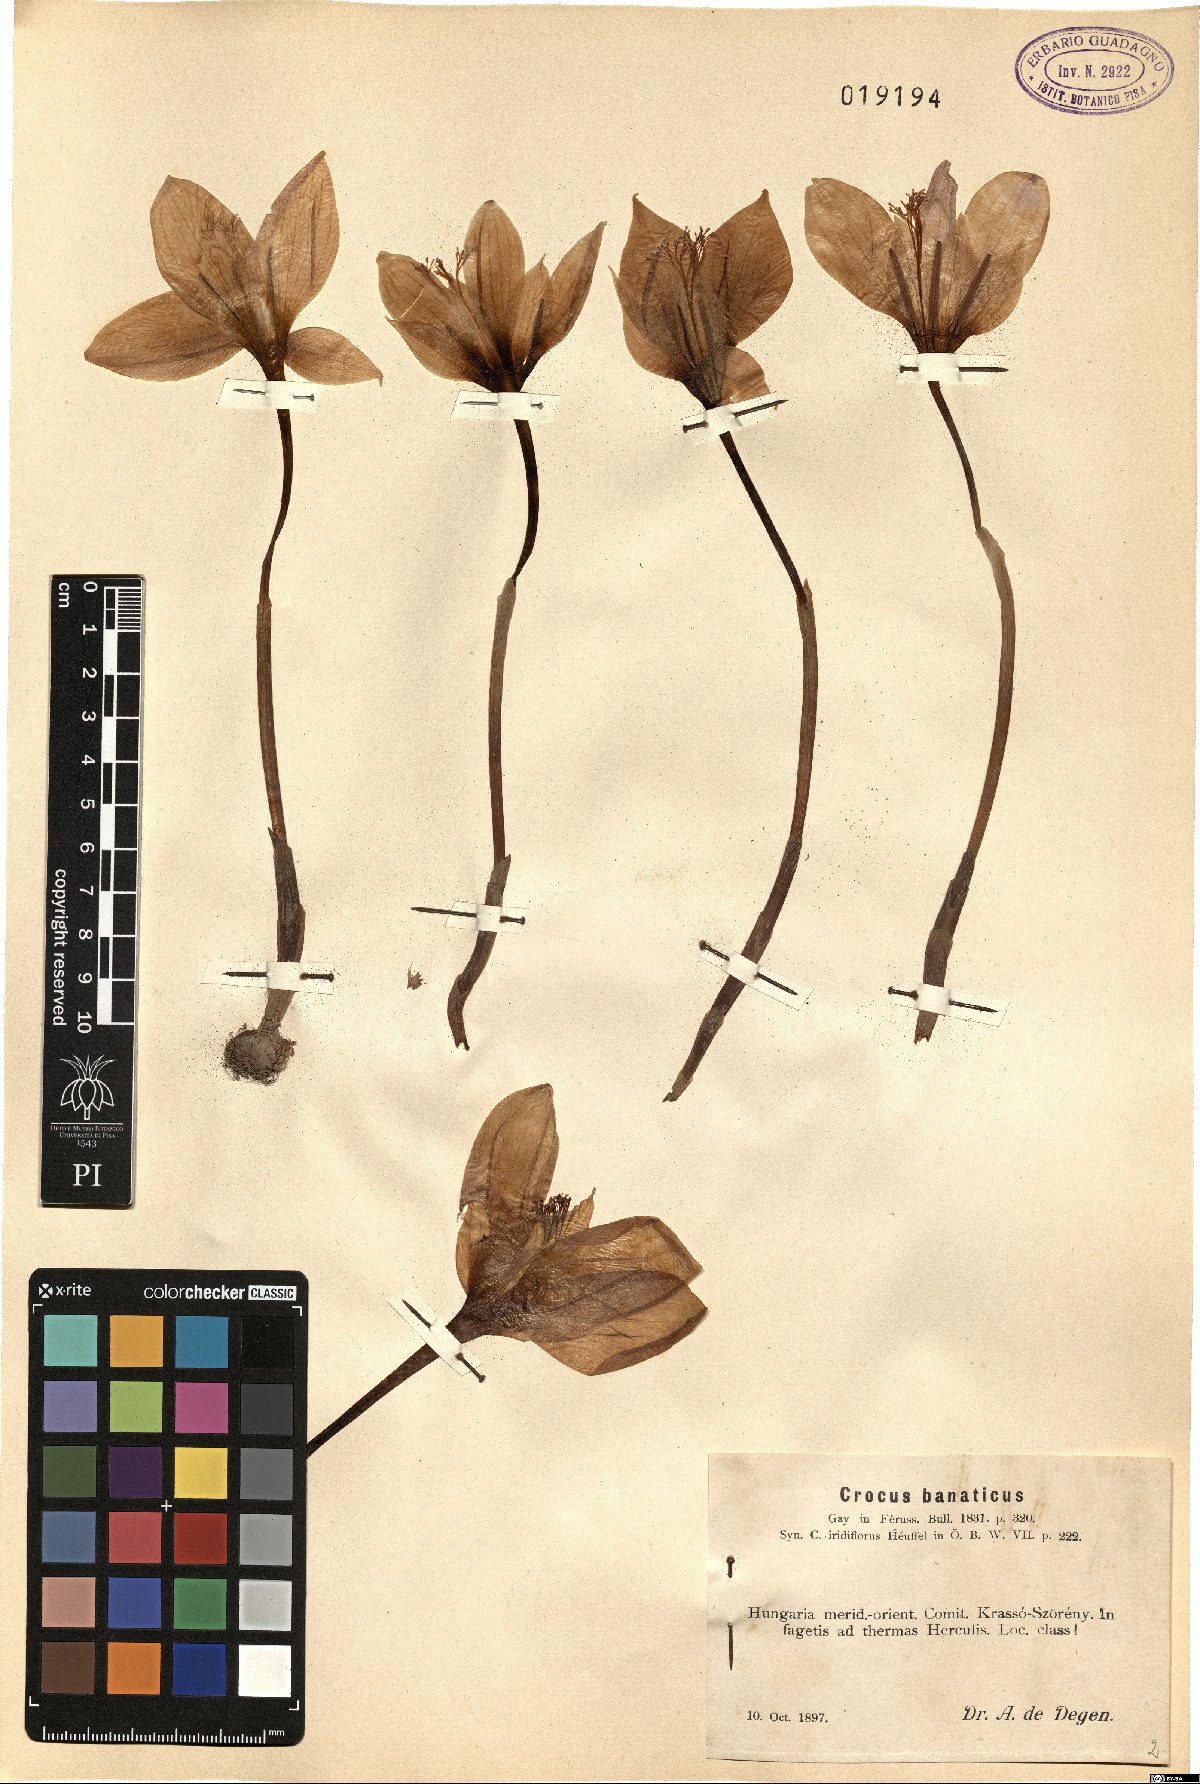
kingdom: Plantae
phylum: Tracheophyta
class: Liliopsida
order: Asparagales
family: Iridaceae
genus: Crocus
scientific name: Crocus banaticus
